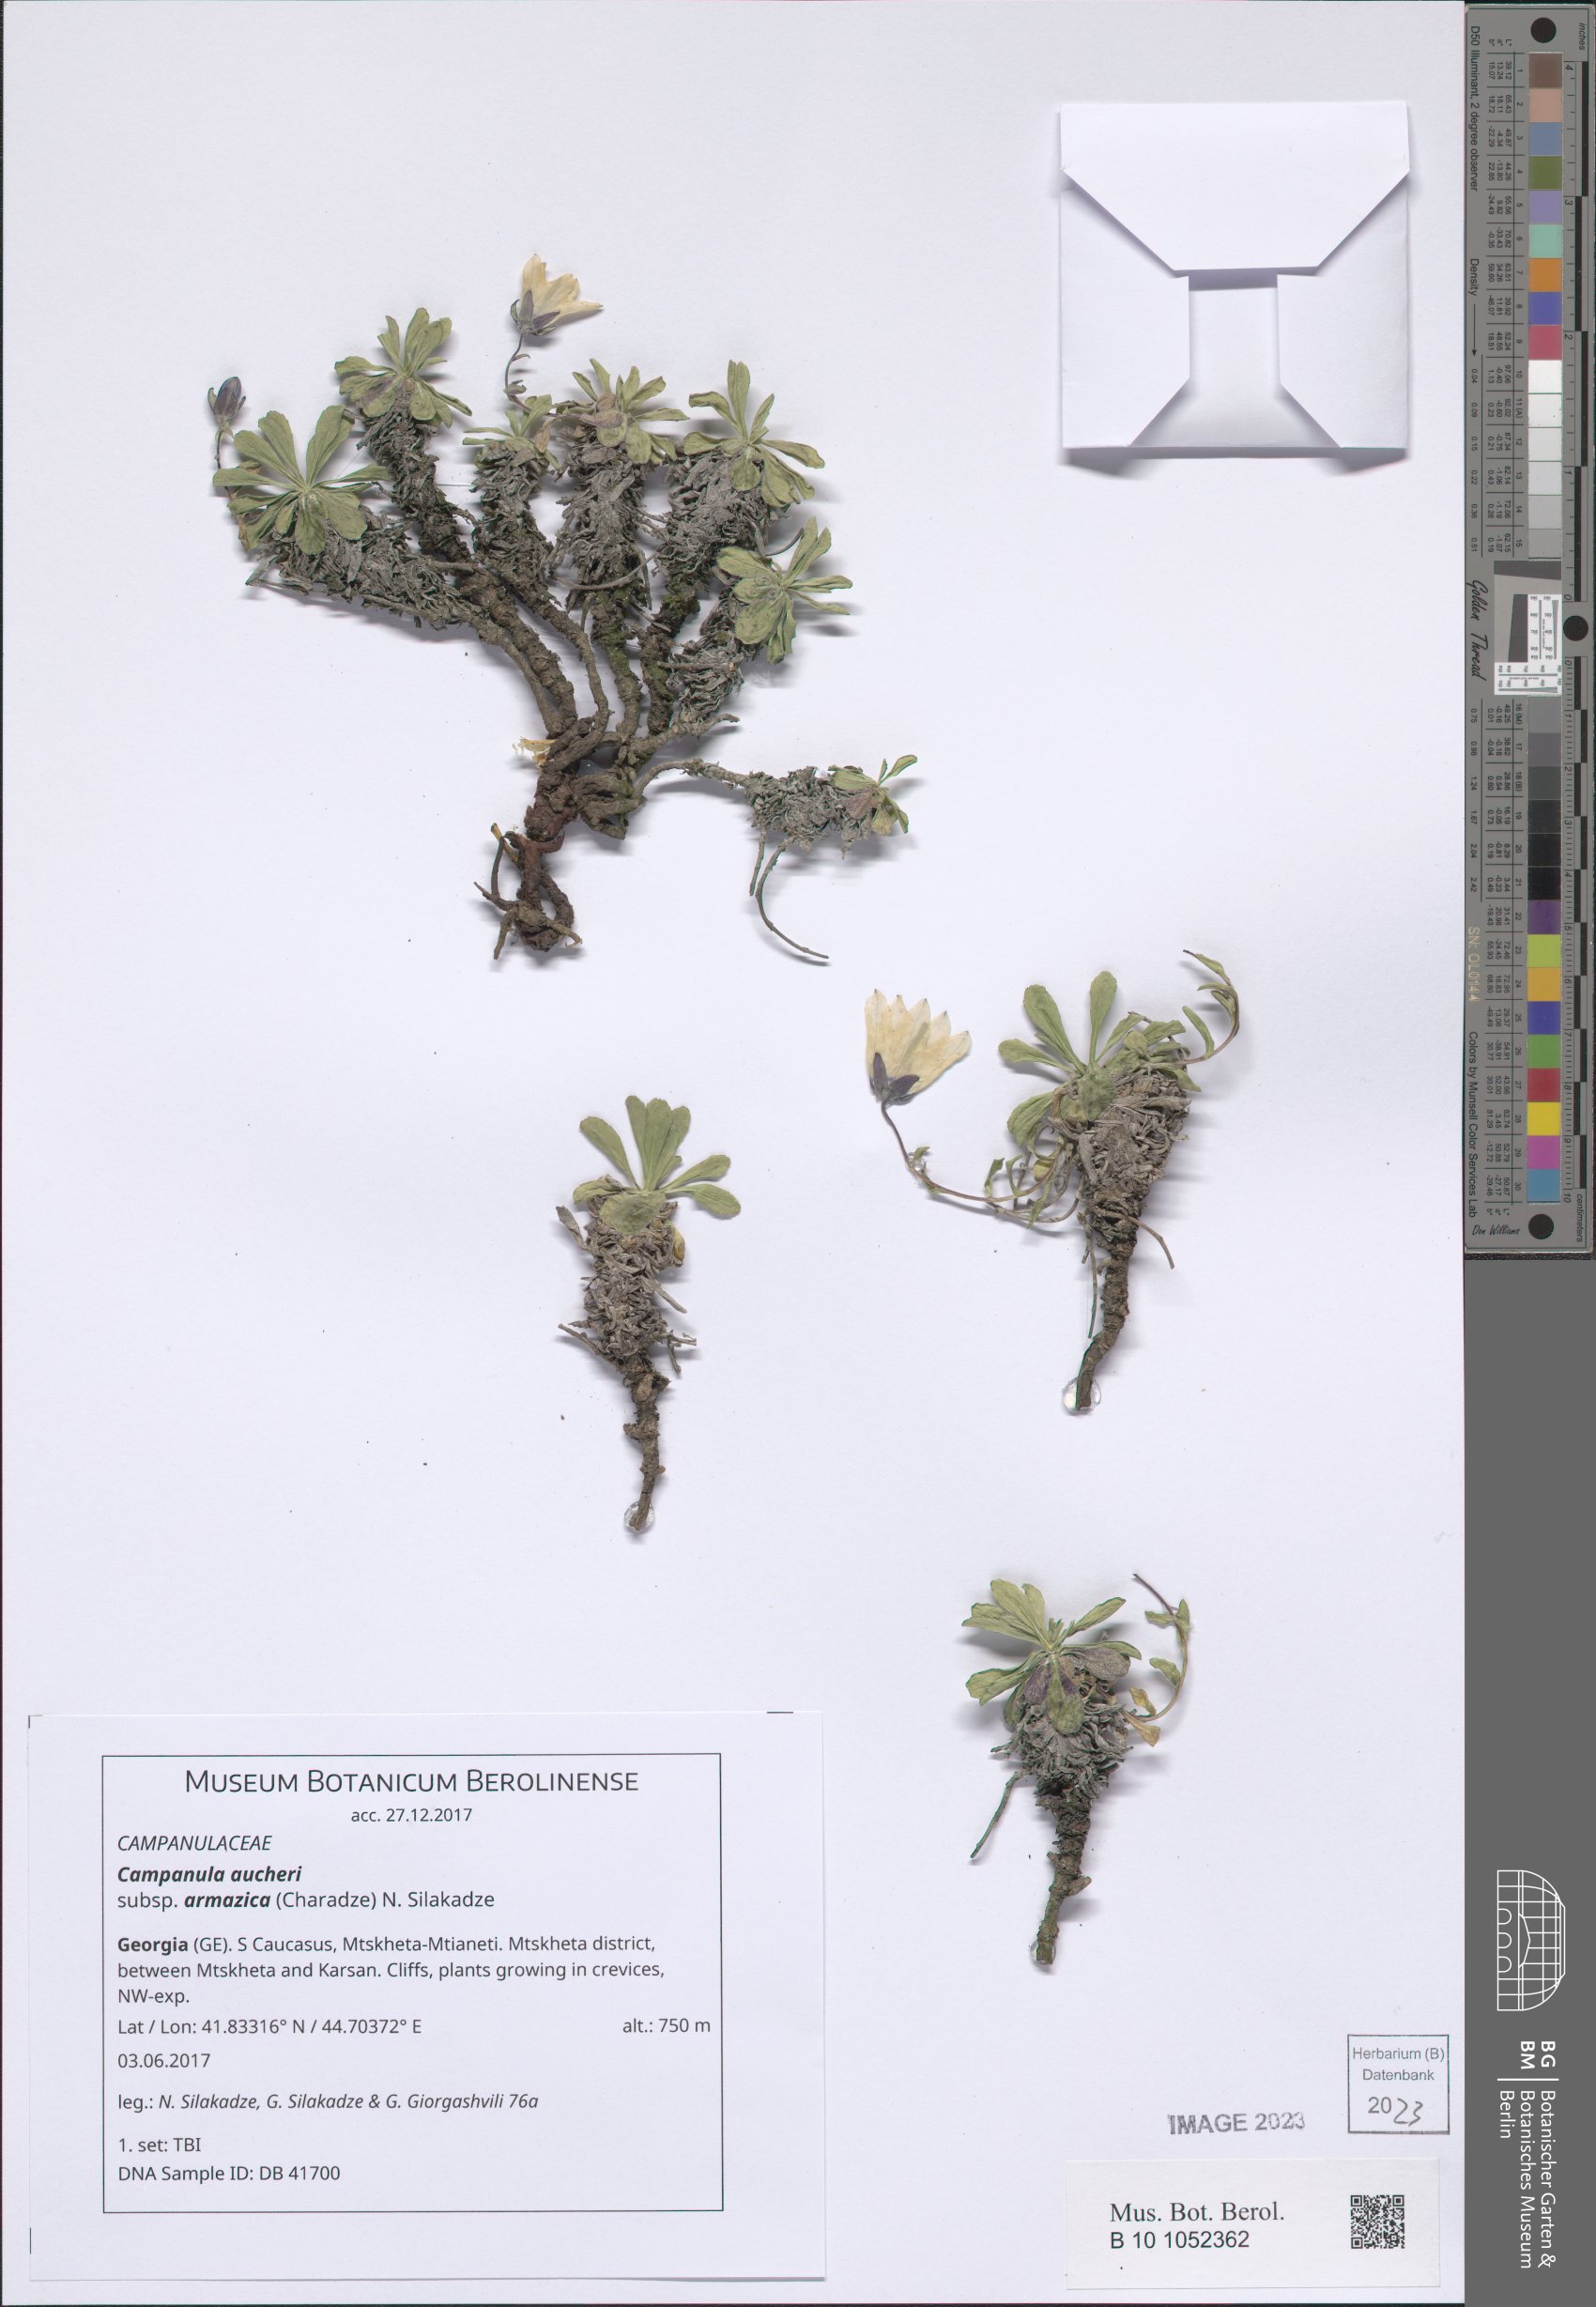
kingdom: Plantae
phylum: Tracheophyta
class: Magnoliopsida
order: Asterales
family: Campanulaceae
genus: Campanula
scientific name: Campanula saxifraga
